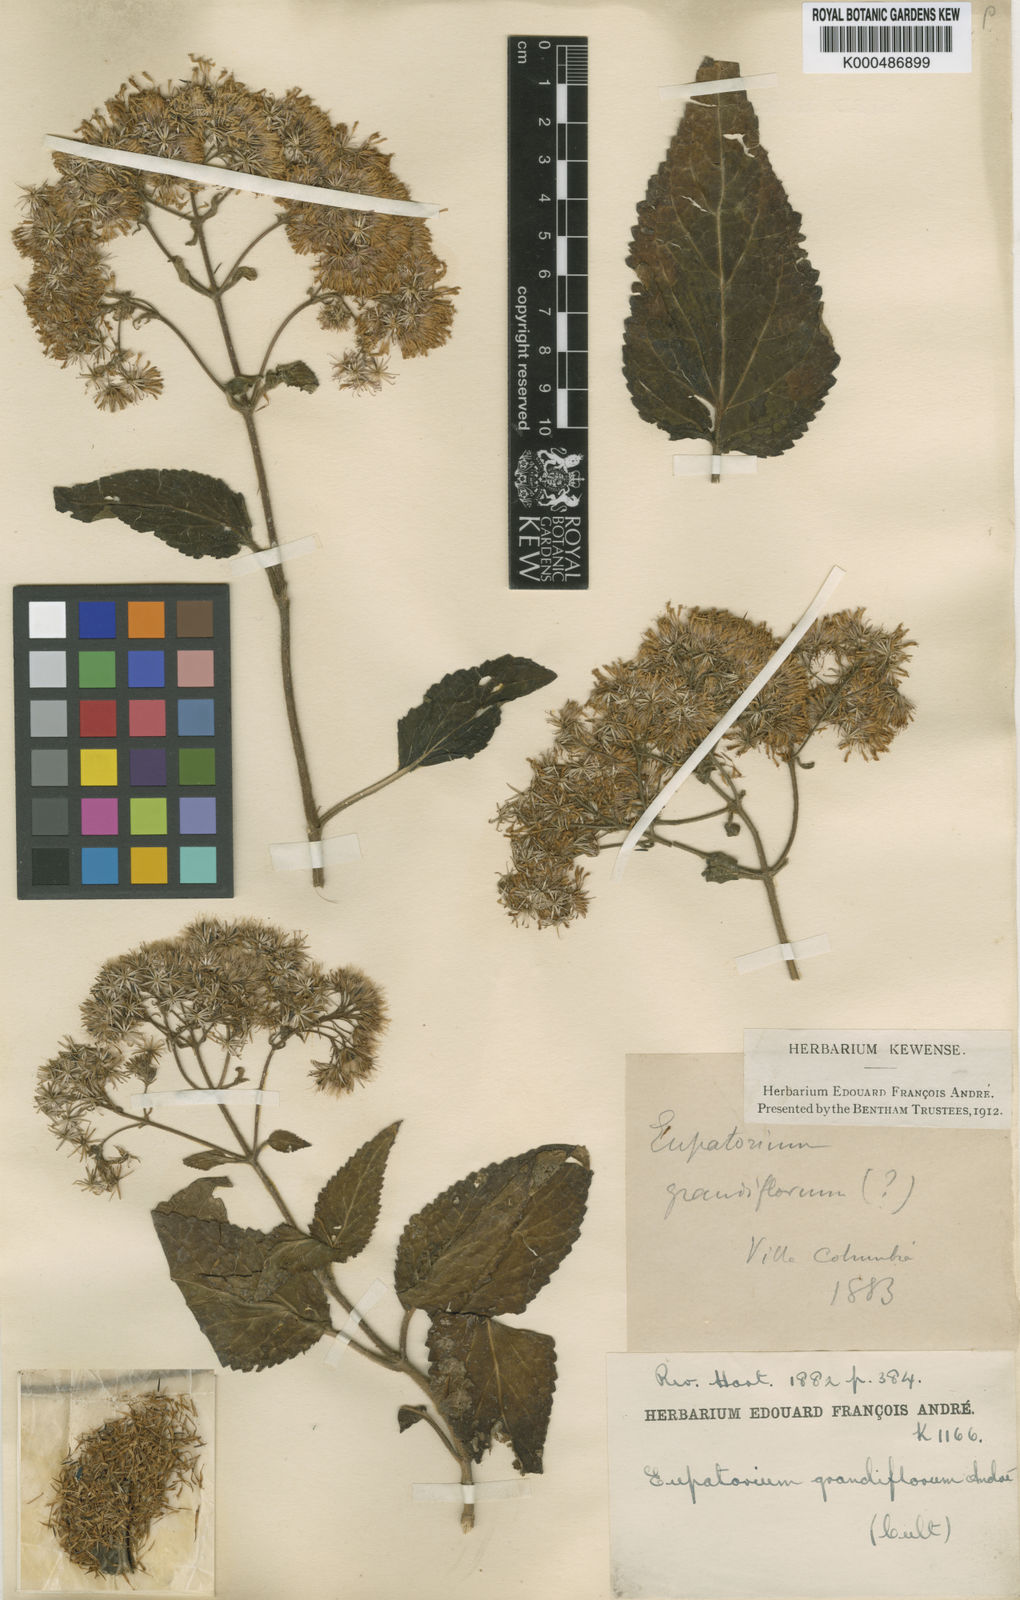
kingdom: Plantae
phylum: Tracheophyta
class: Magnoliopsida
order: Asterales
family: Asteraceae
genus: Chromolaena
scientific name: Chromolaena odorata
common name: Siamweed
